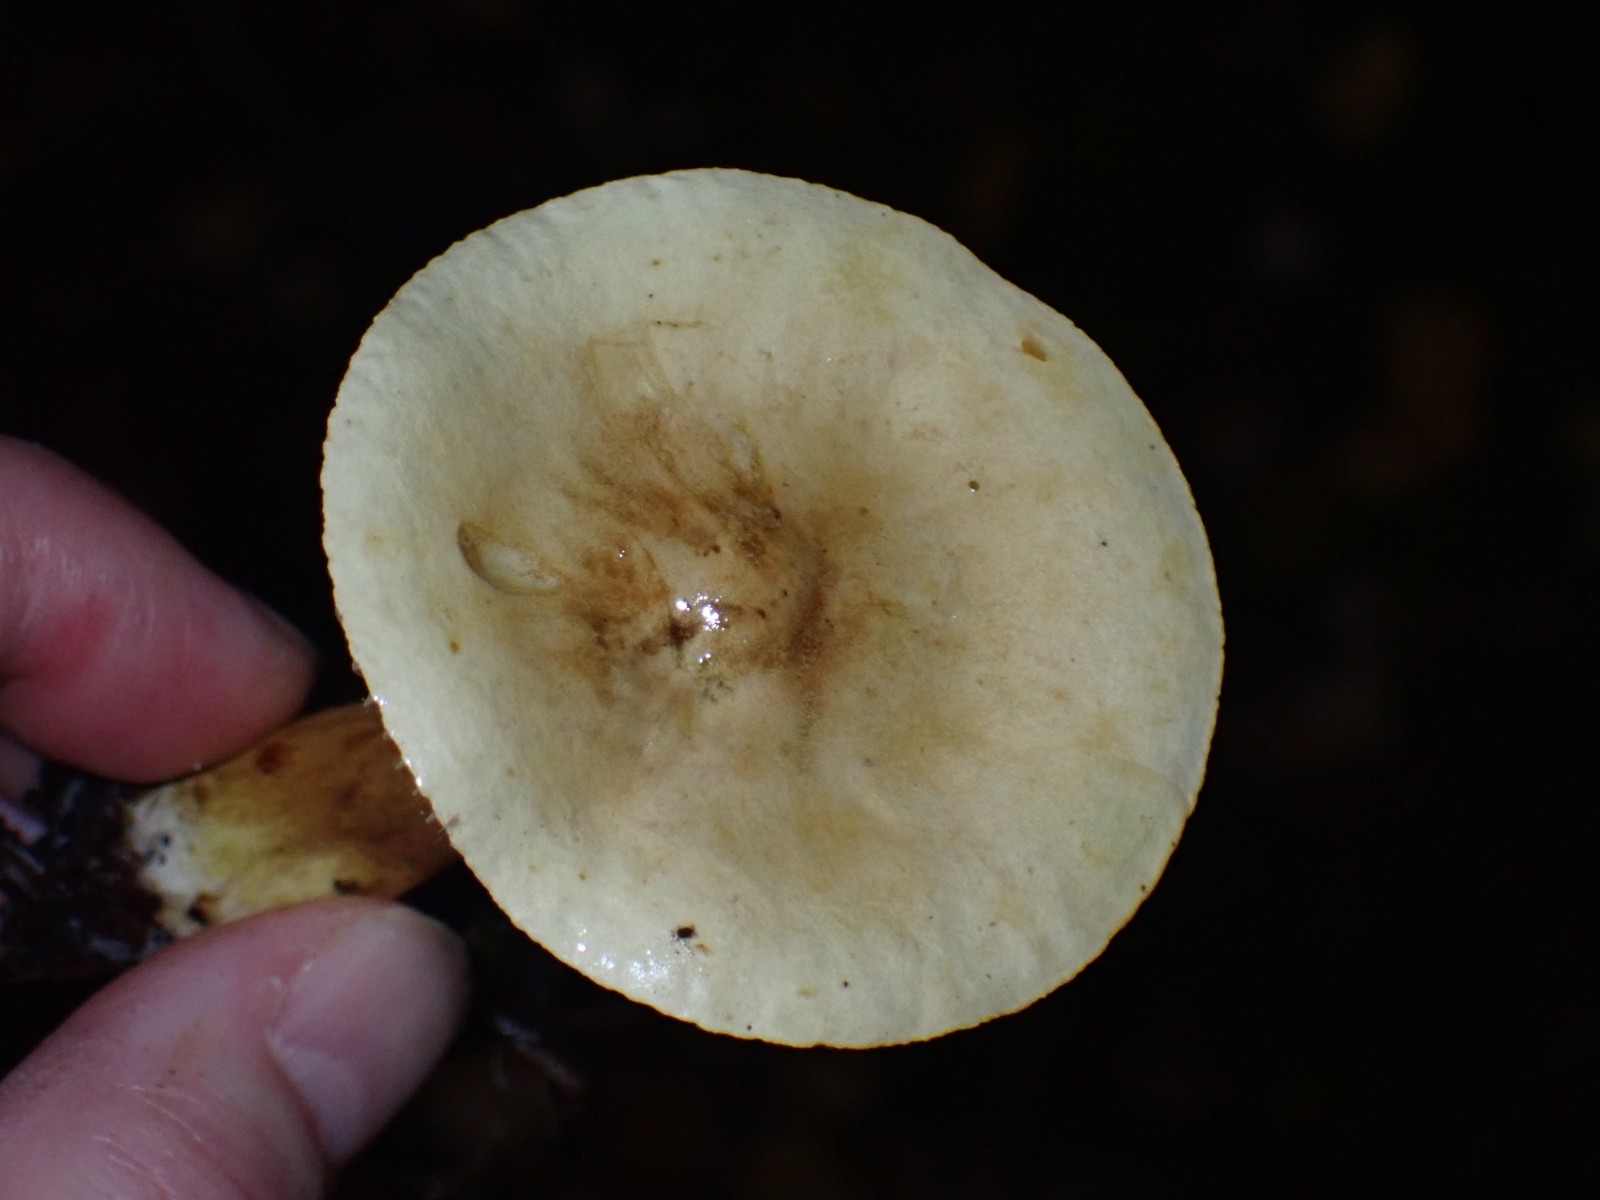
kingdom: Fungi
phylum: Basidiomycota
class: Agaricomycetes
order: Agaricales
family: Tricholomataceae
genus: Tricholoma
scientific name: Tricholoma
